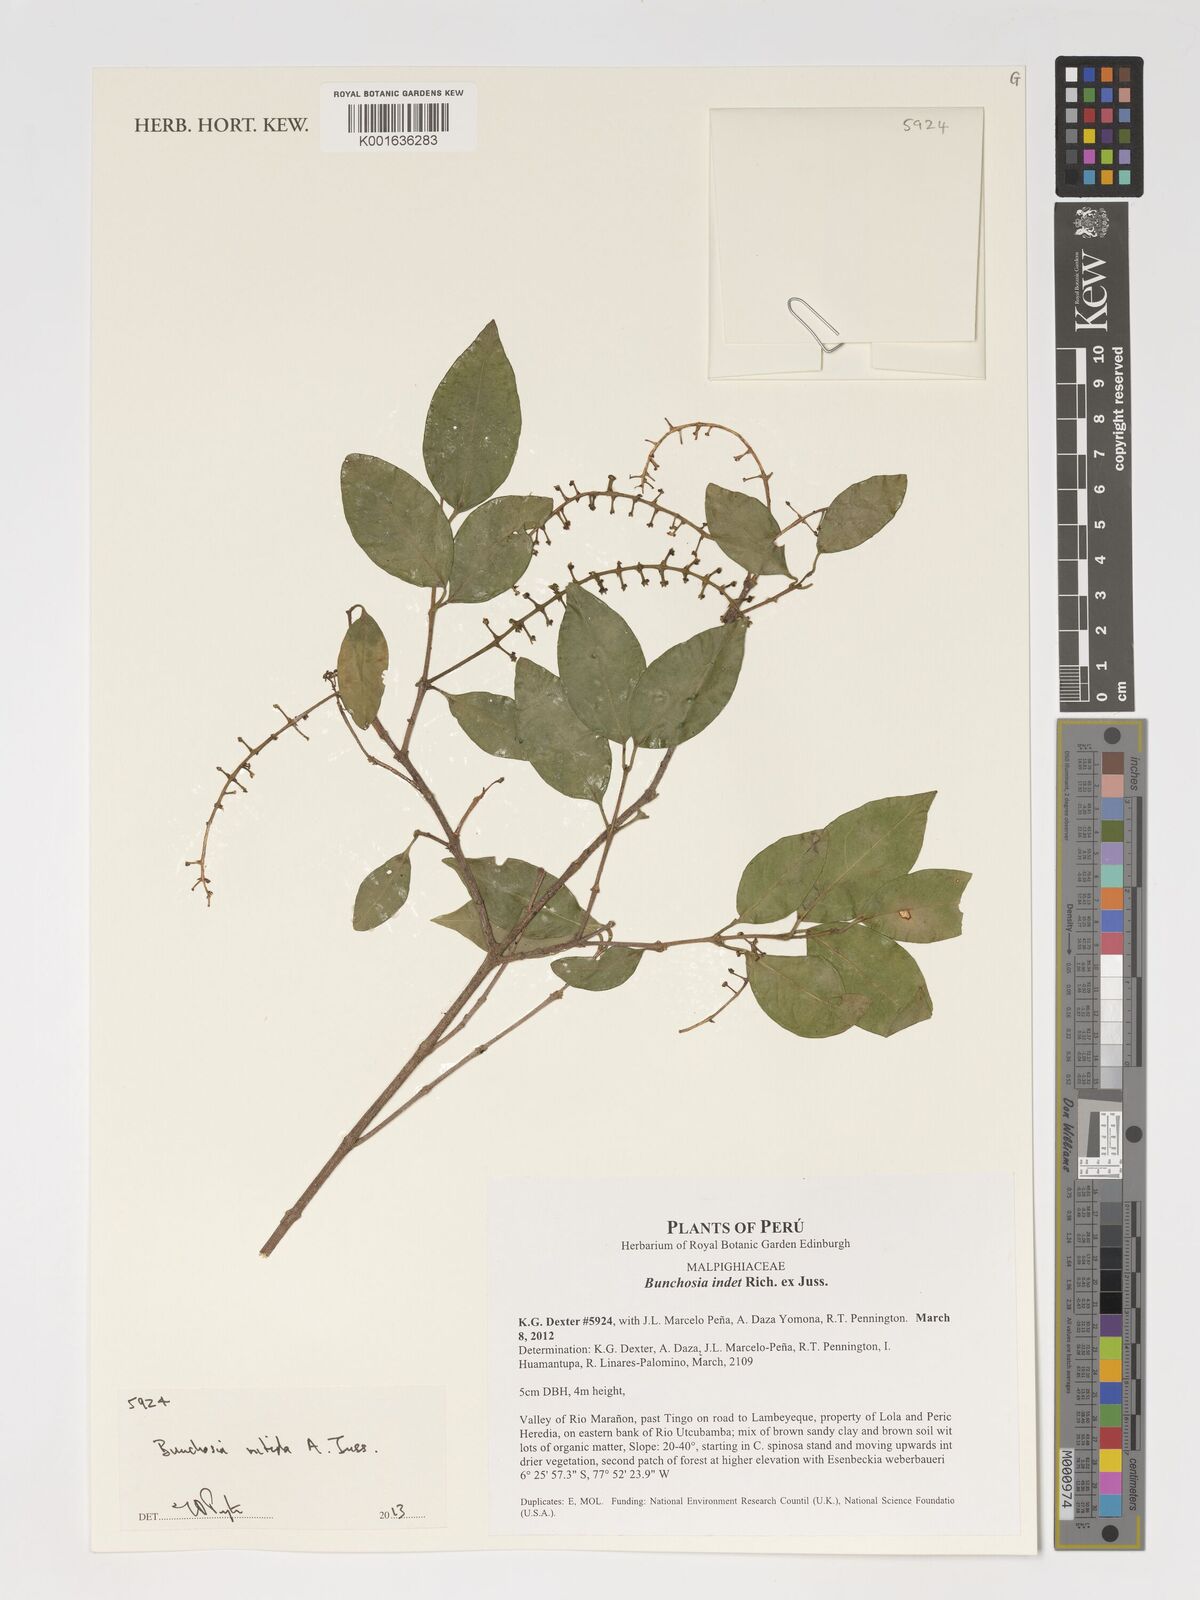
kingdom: Plantae
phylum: Tracheophyta
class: Magnoliopsida
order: Malpighiales
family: Malpighiaceae
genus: Bunchosia
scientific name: Bunchosia
